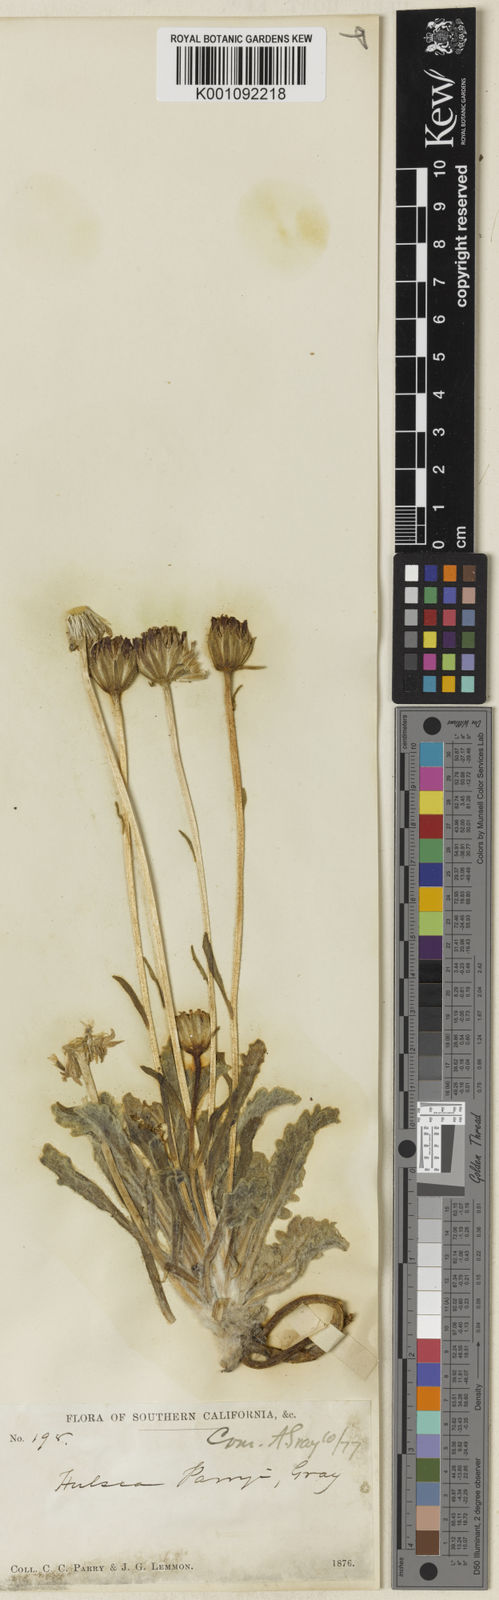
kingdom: Plantae
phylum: Tracheophyta
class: Magnoliopsida
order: Asterales
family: Asteraceae
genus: Hulsea
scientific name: Hulsea vestita
